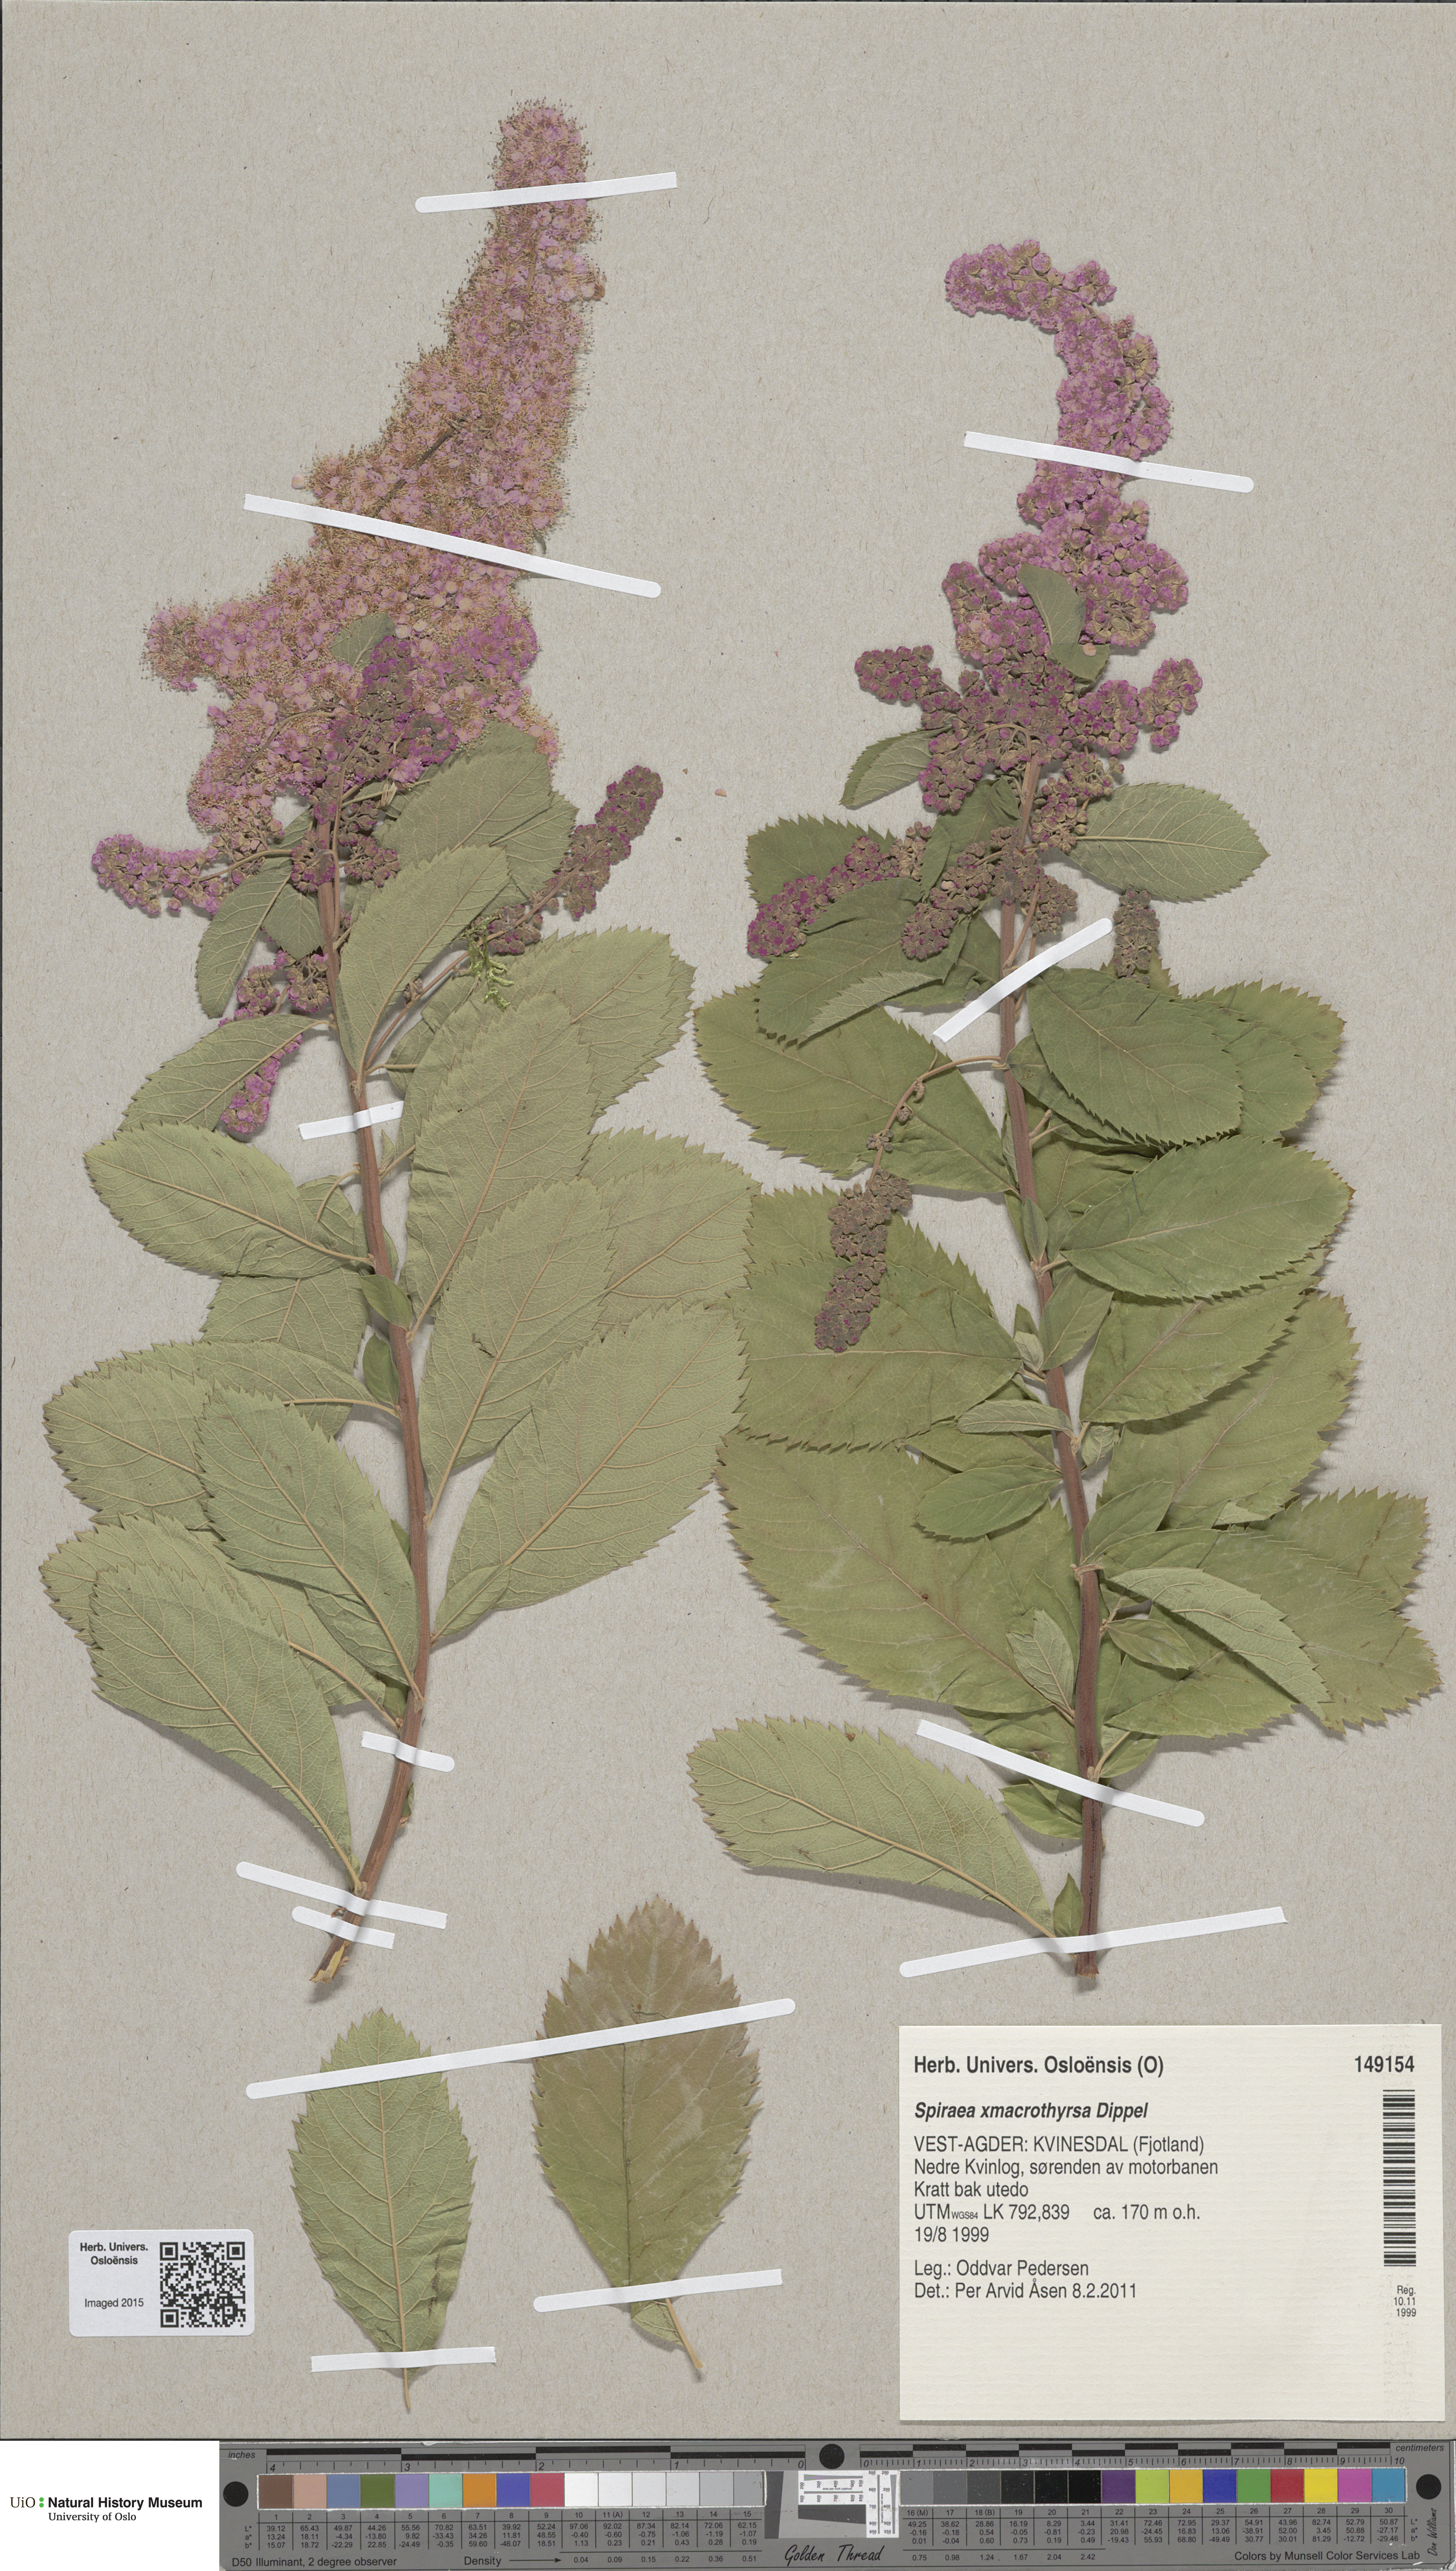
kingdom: Plantae
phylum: Tracheophyta
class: Magnoliopsida
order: Rosales
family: Rosaceae
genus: Spiraea
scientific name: Spiraea macrothyrsa
